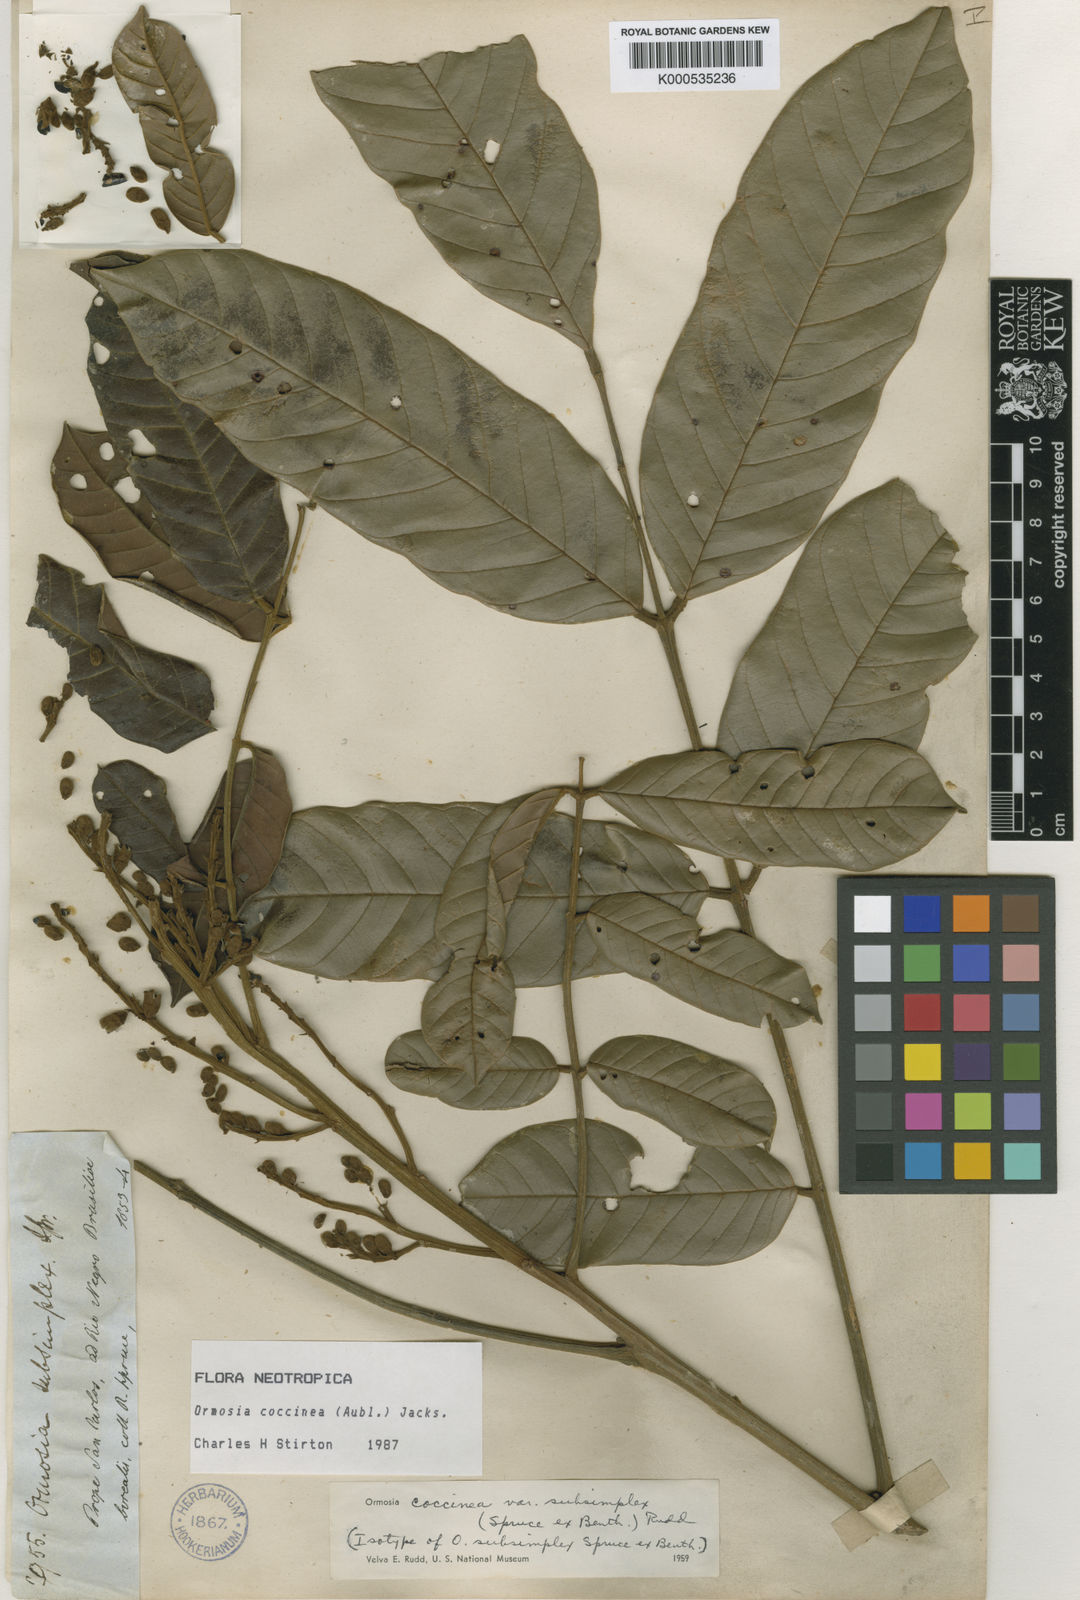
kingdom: Plantae
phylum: Tracheophyta
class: Magnoliopsida
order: Fabales
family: Fabaceae
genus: Ormosia
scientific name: Ormosia subsimplex
